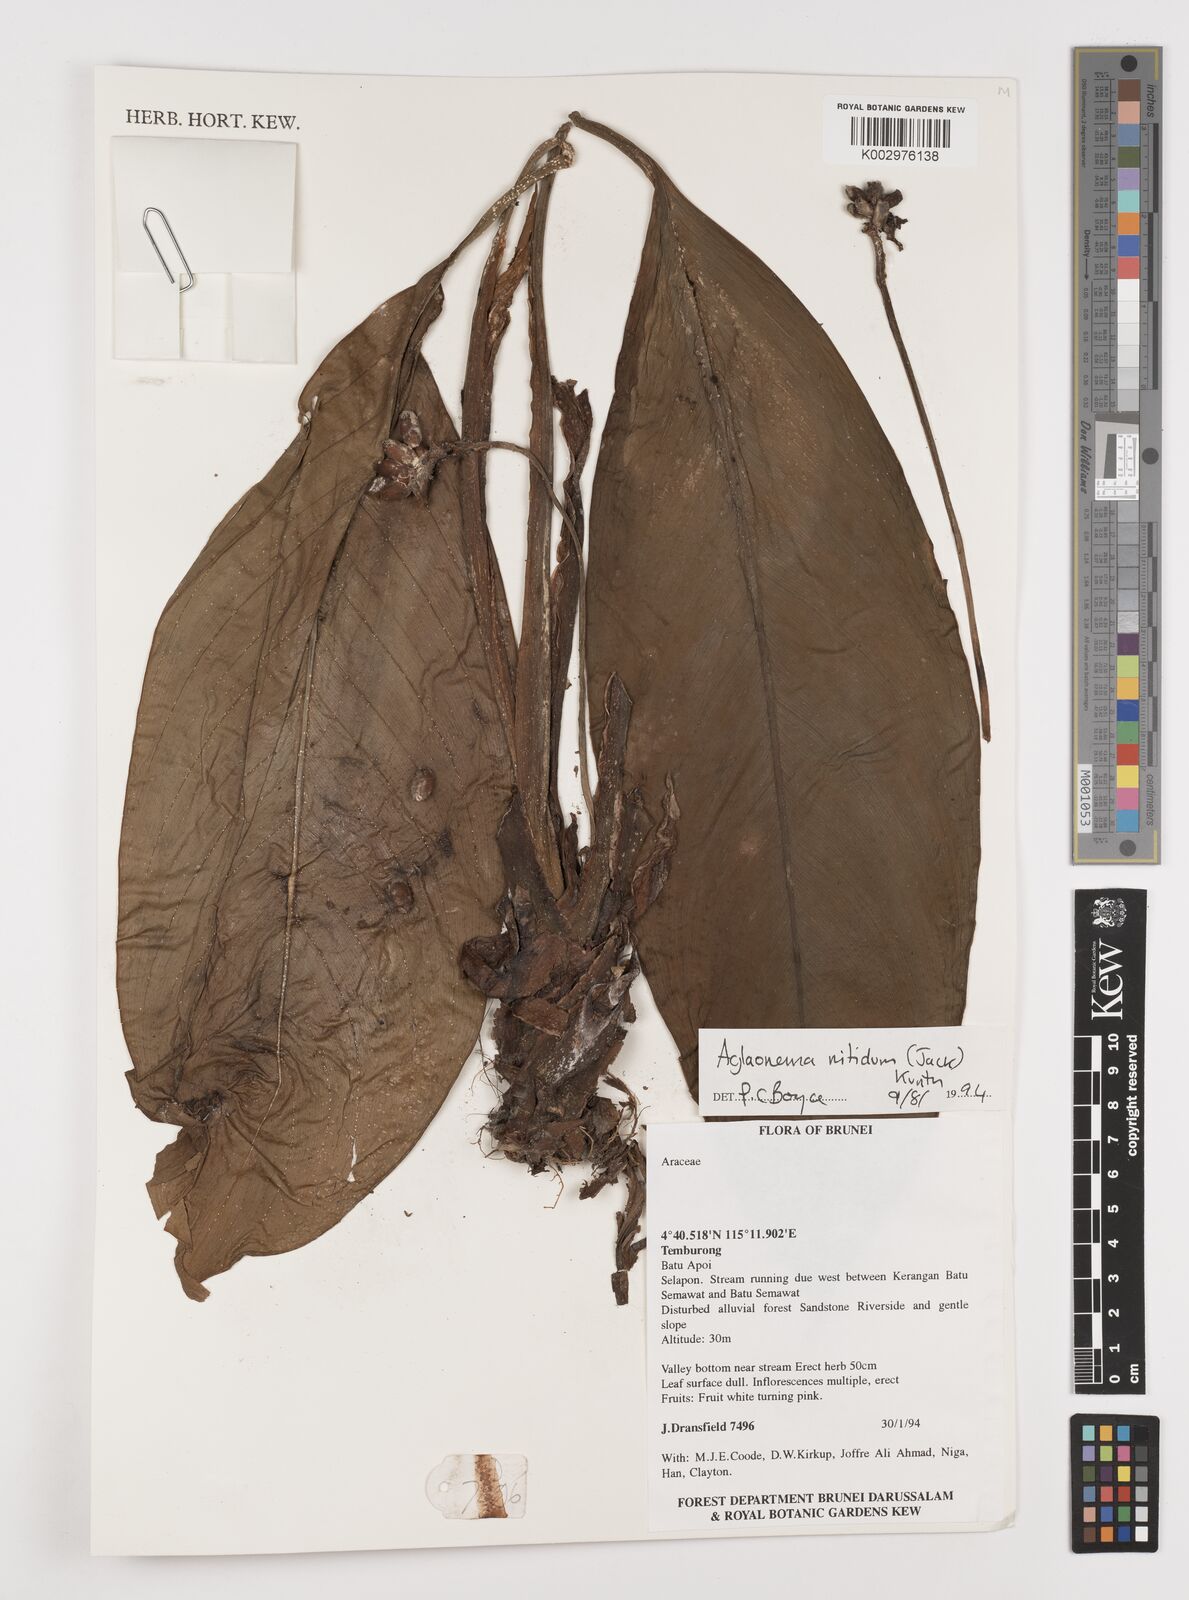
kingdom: Plantae
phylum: Tracheophyta
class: Liliopsida
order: Alismatales
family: Araceae
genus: Aglaonema
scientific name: Aglaonema nitidum
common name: Aglaonema aroid
